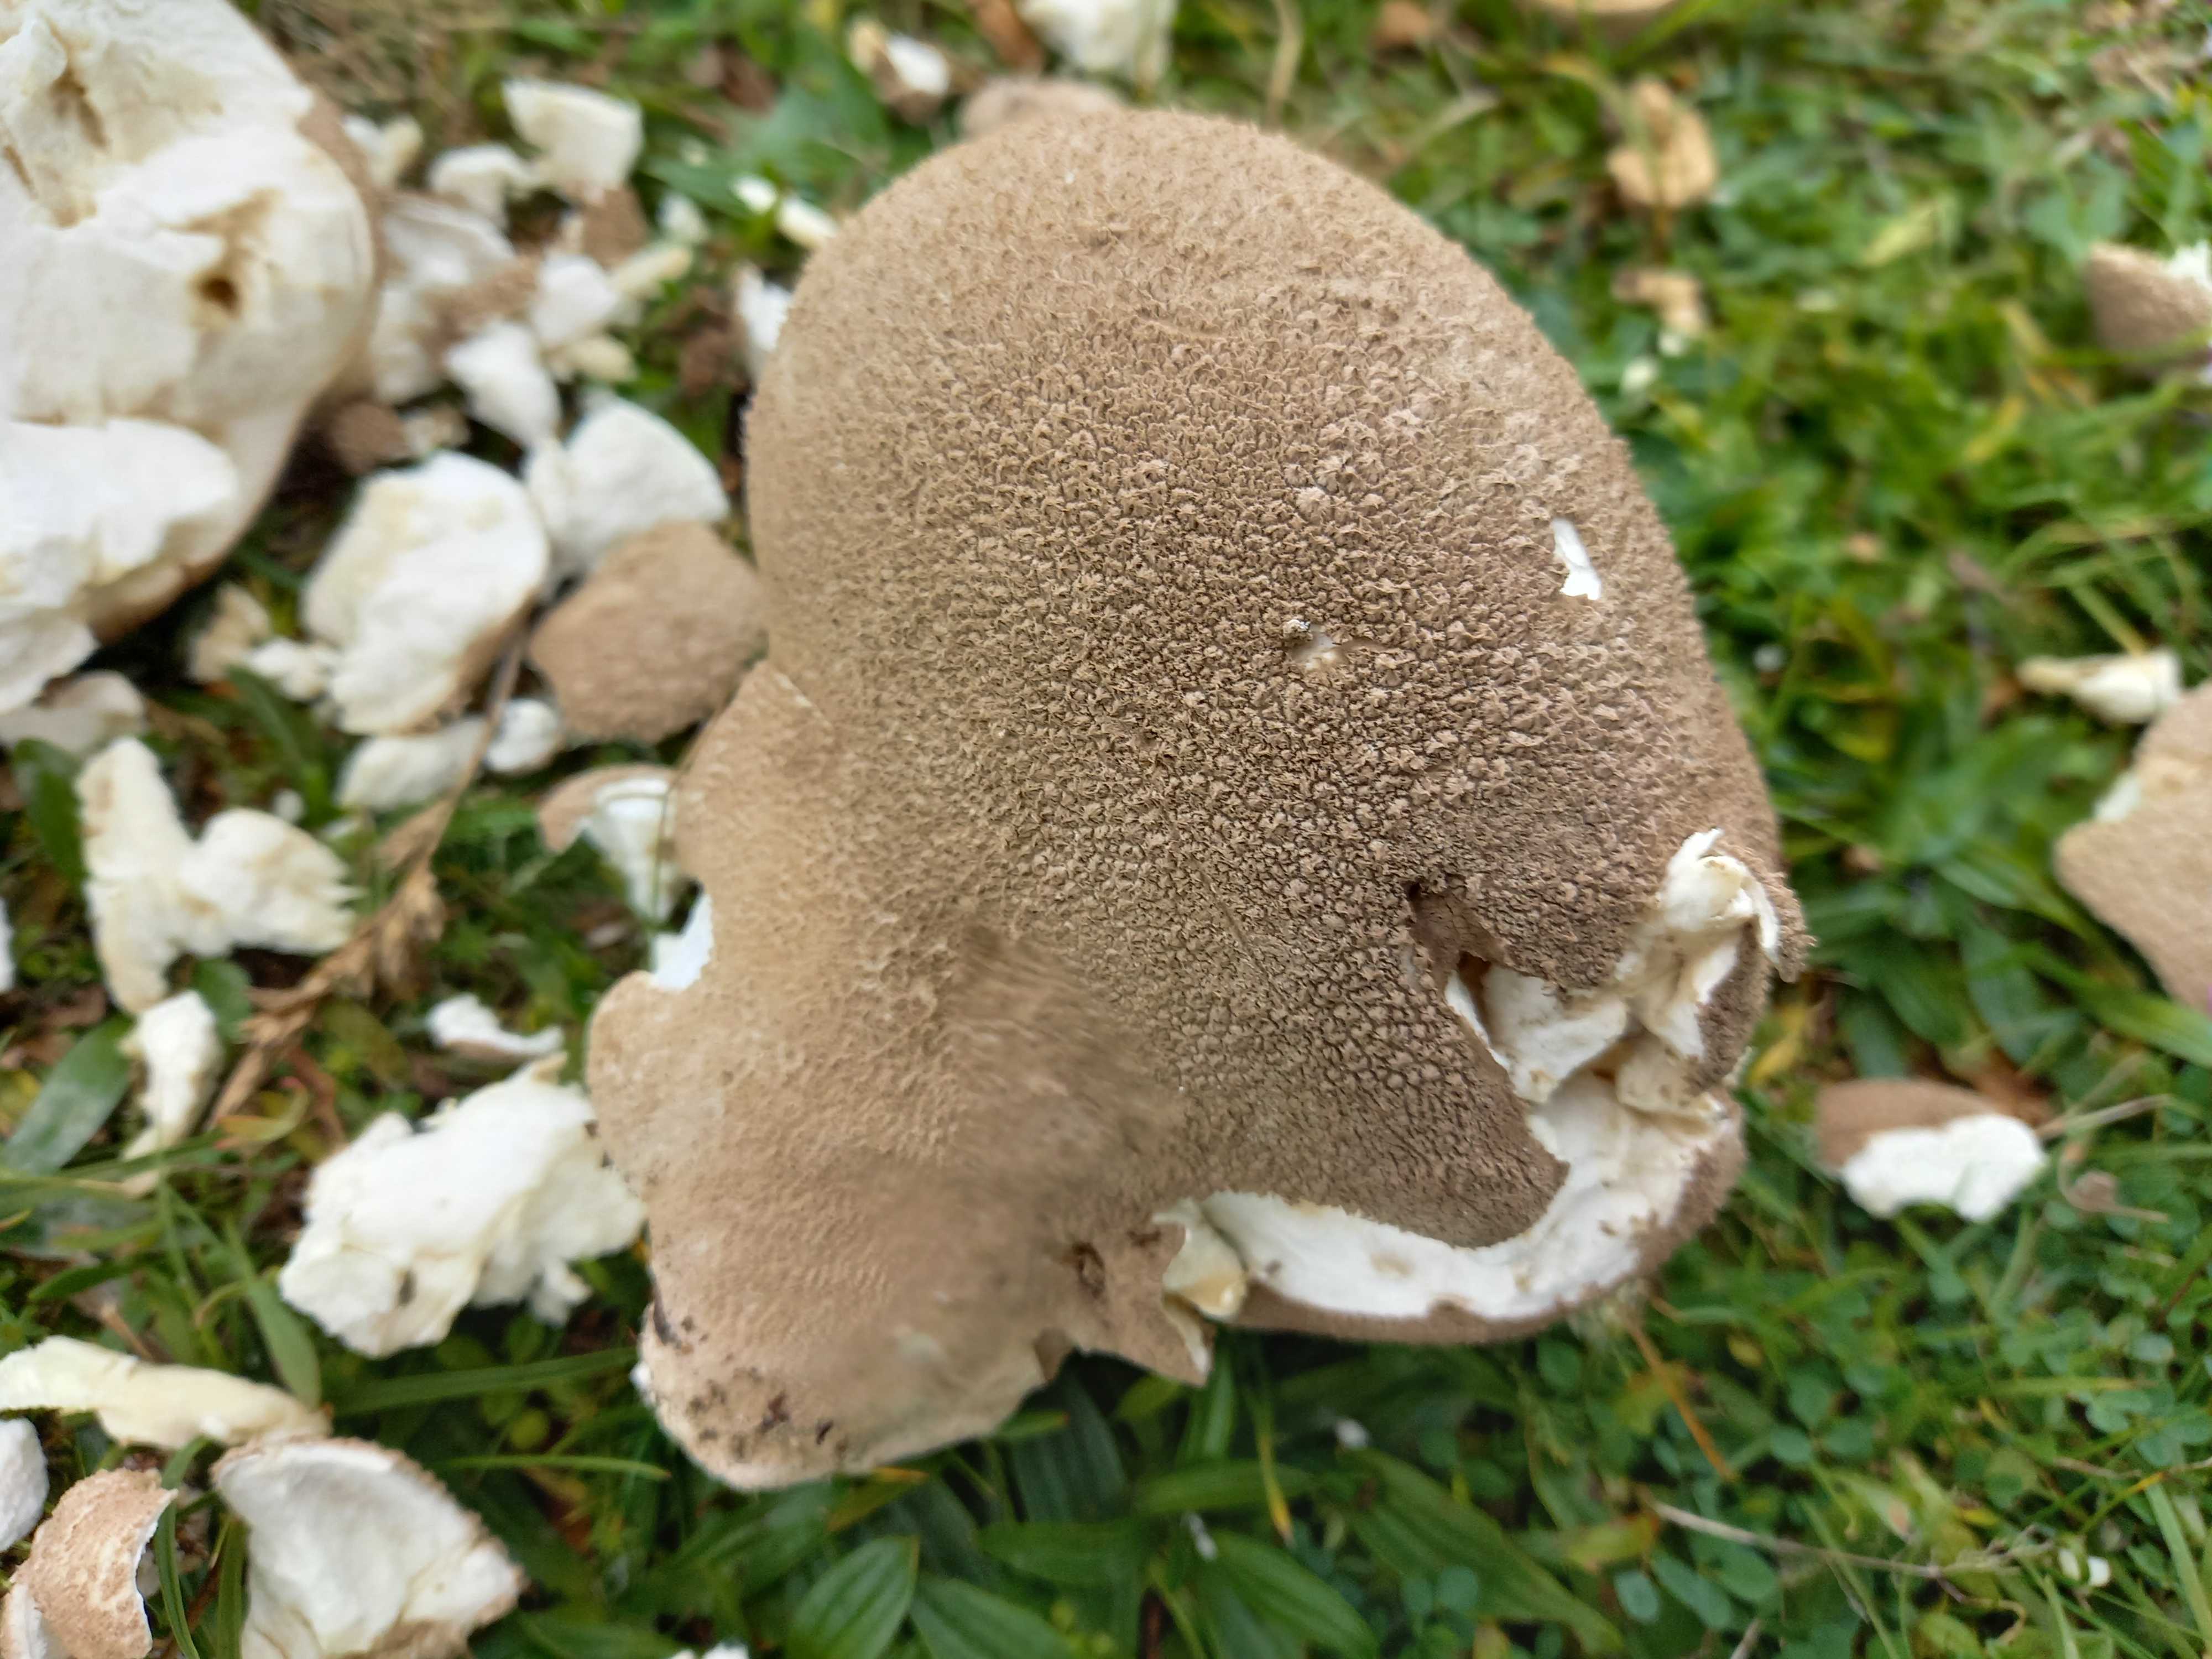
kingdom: Fungi
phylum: Basidiomycota
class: Agaricomycetes
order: Agaricales
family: Lycoperdaceae
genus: Bovistella
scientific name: Bovistella utriformis
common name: skællet støvbold
